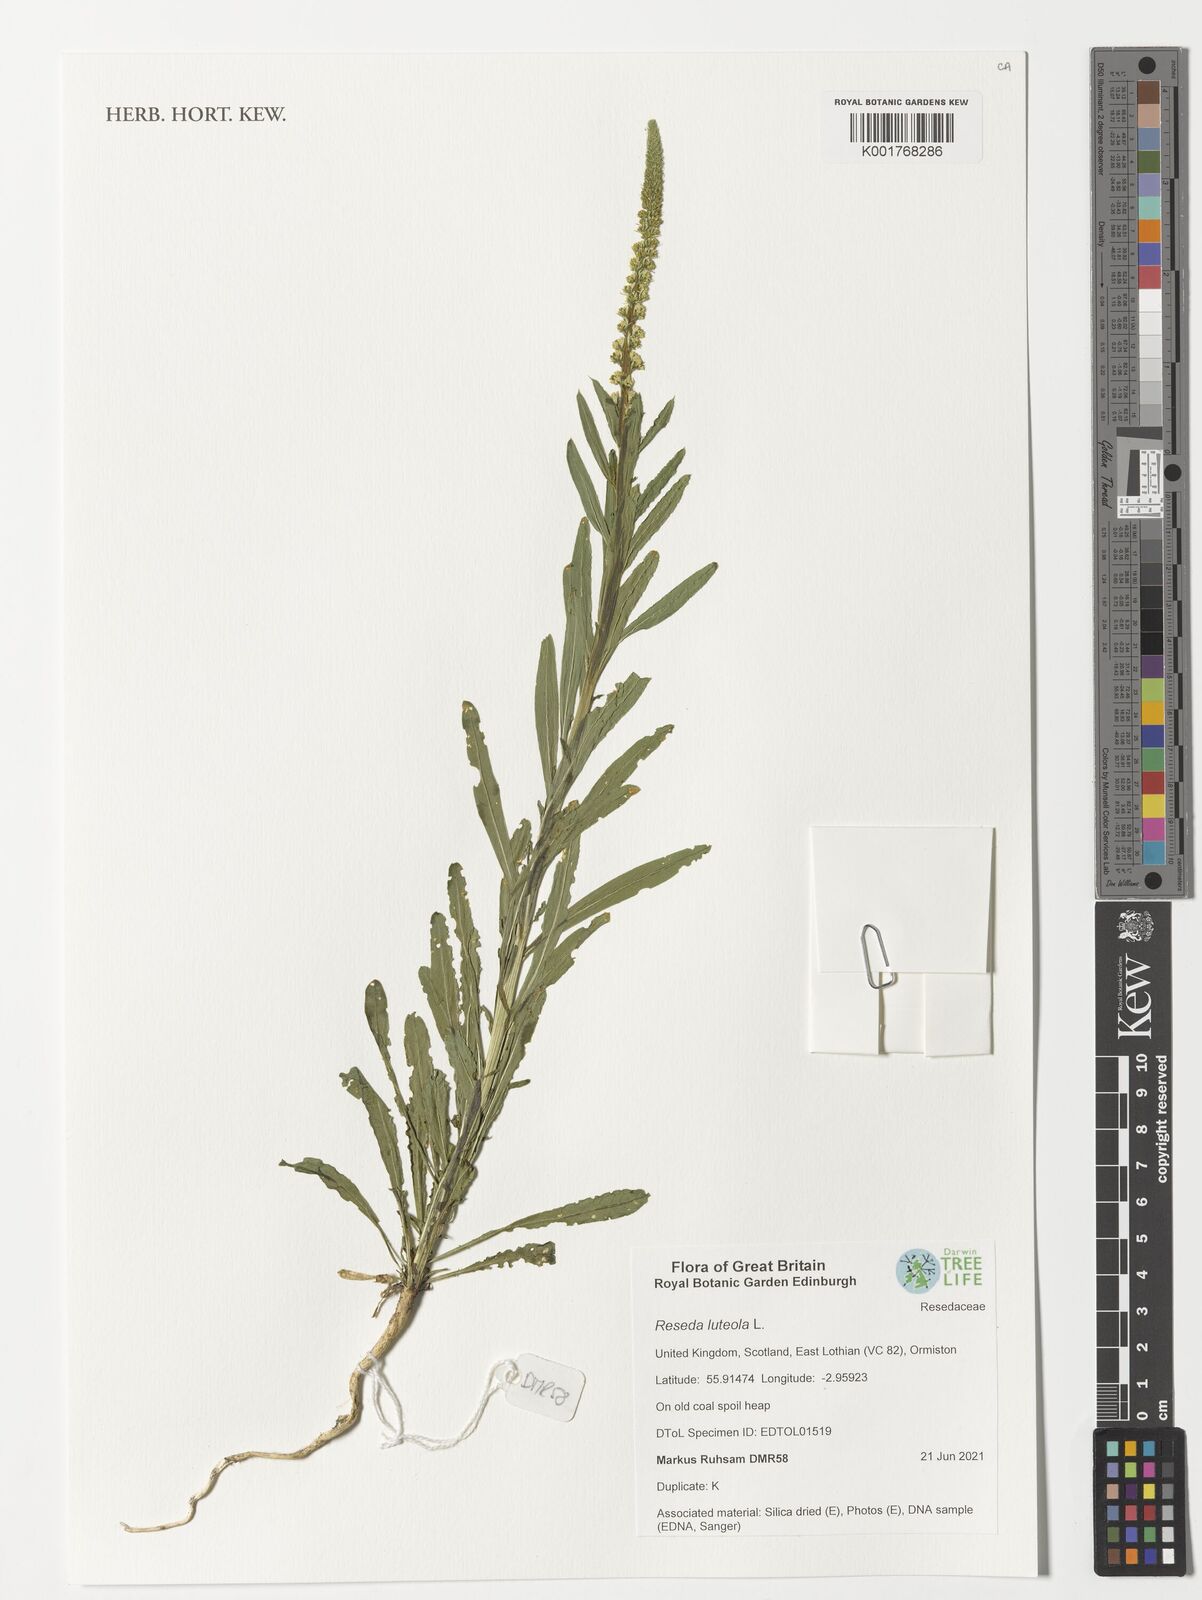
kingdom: Plantae
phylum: Tracheophyta
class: Magnoliopsida
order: Brassicales
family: Resedaceae
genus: Reseda
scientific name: Reseda luteola
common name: Weld
